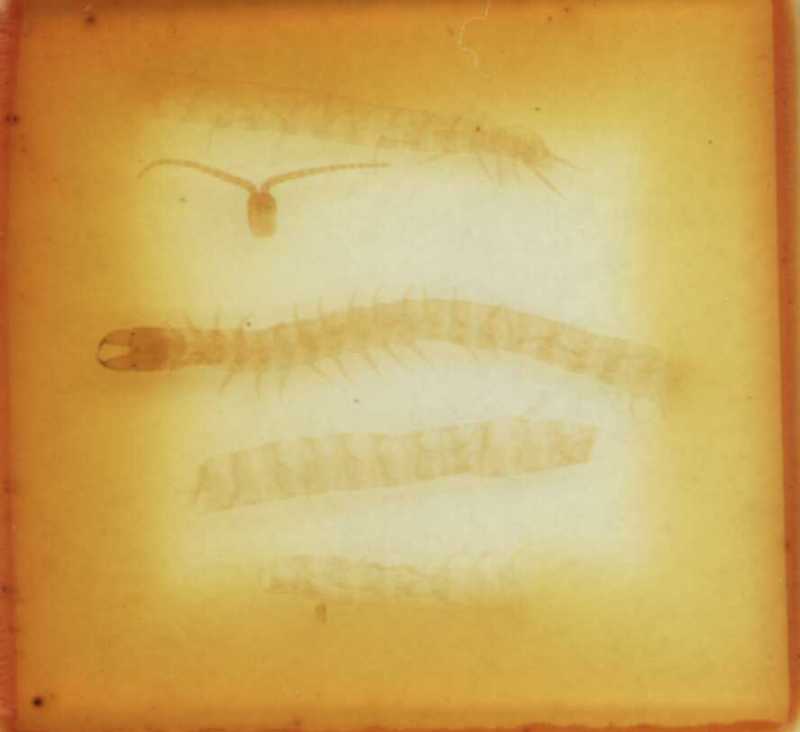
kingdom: Animalia
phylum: Arthropoda
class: Chilopoda
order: Geophilomorpha
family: Geophilidae
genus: Polygonarea
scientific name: Polygonarea africana
